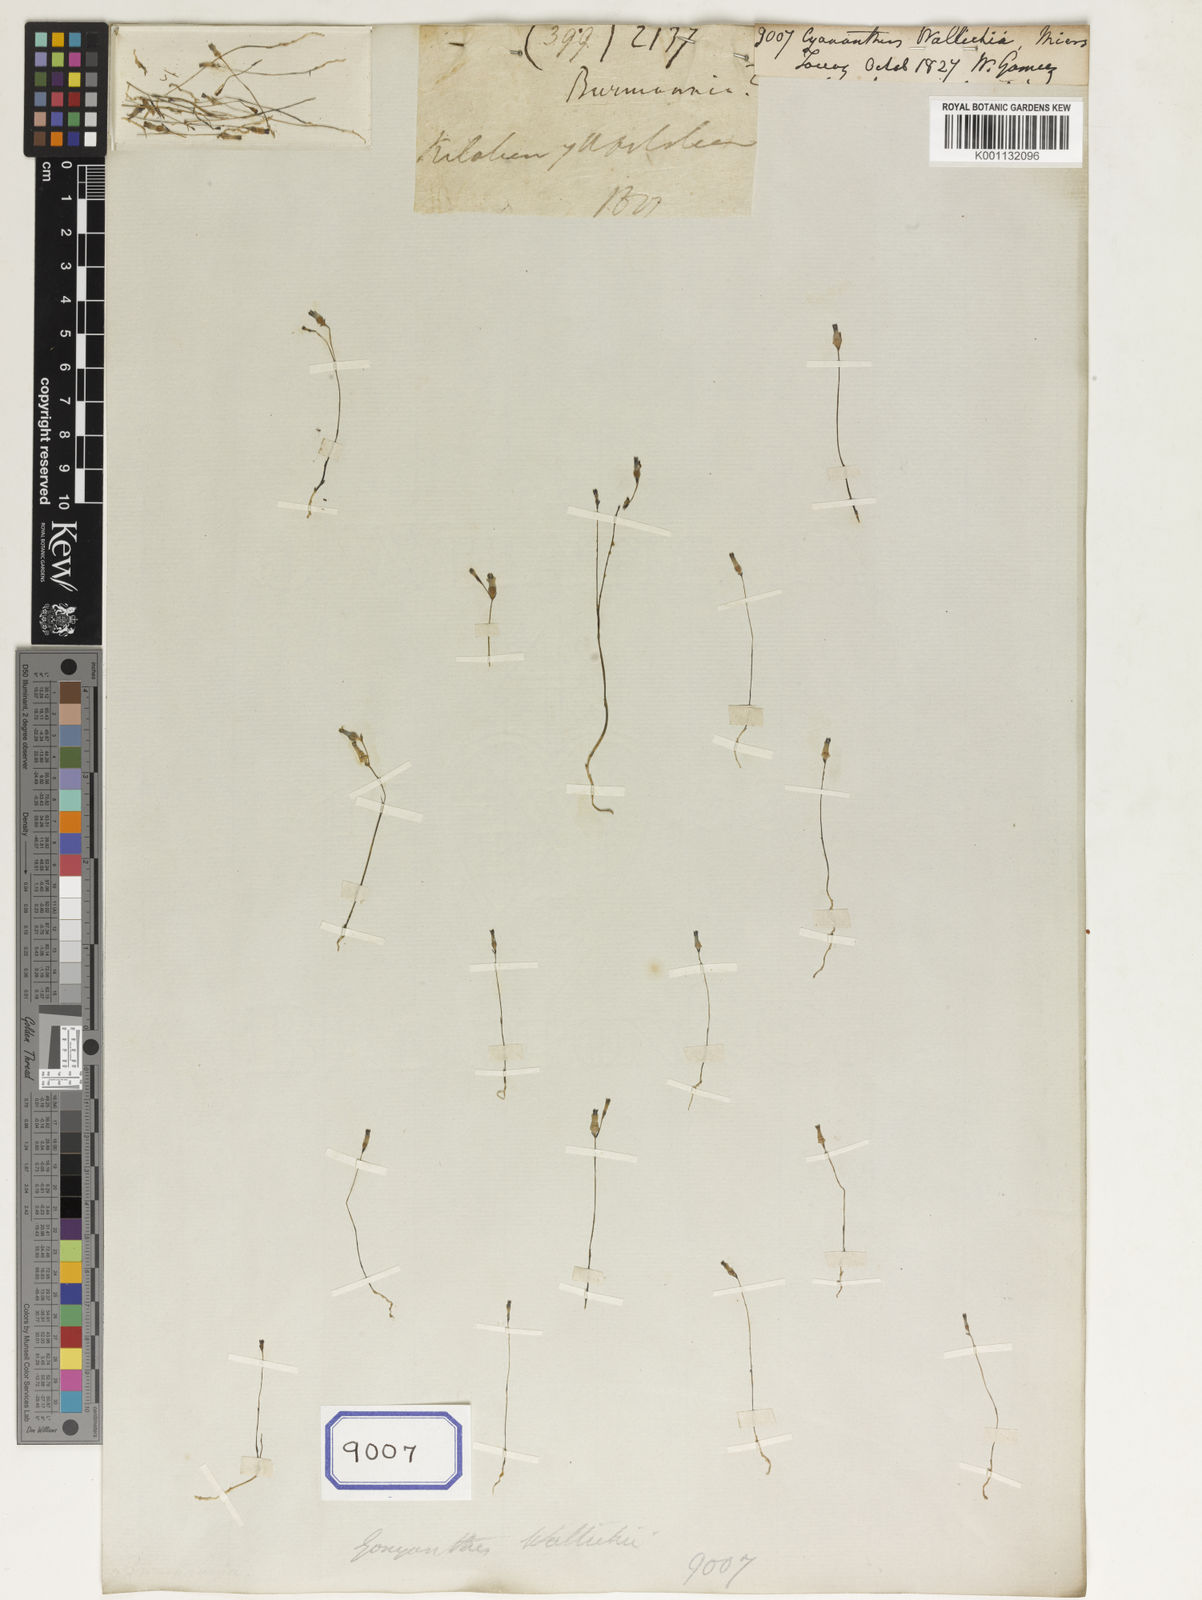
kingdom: Plantae
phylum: Tracheophyta
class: Magnoliopsida
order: Asterales
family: Campanulaceae
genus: Cyananthus
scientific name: Cyananthus
